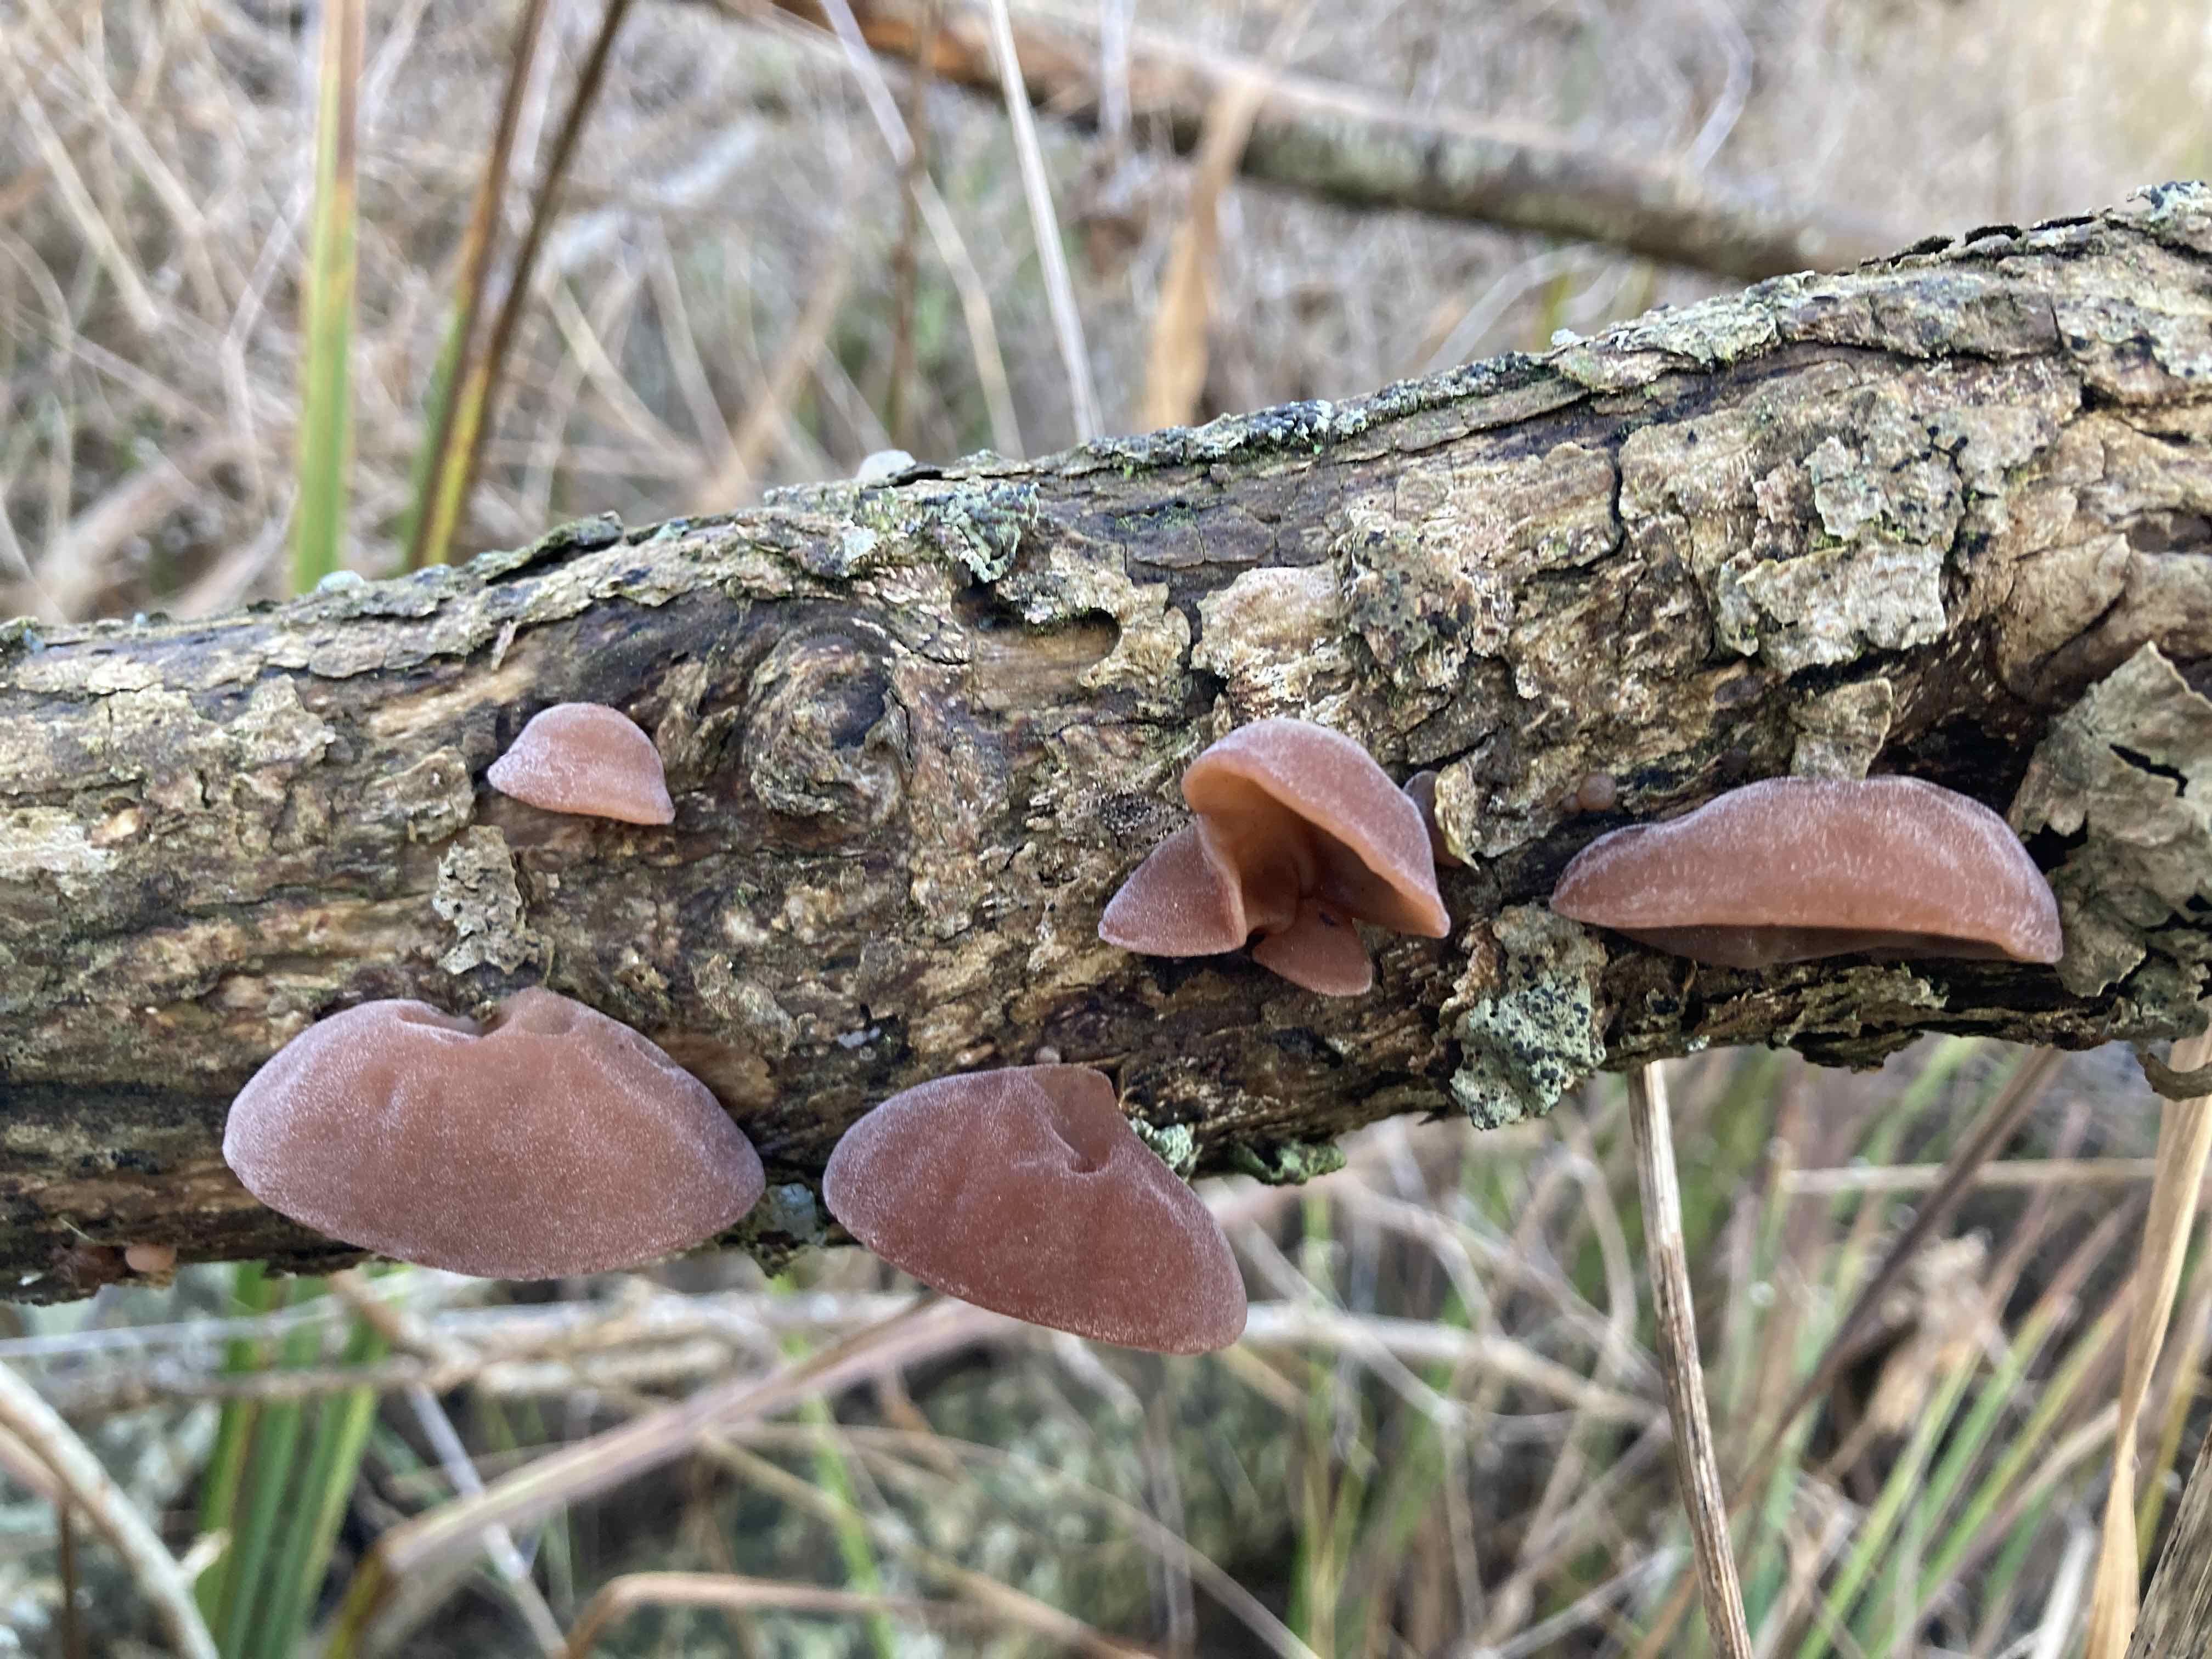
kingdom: Fungi
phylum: Basidiomycota
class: Agaricomycetes
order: Auriculariales
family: Auriculariaceae
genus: Auricularia
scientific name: Auricularia auricula-judae
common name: almindelig judasøre
